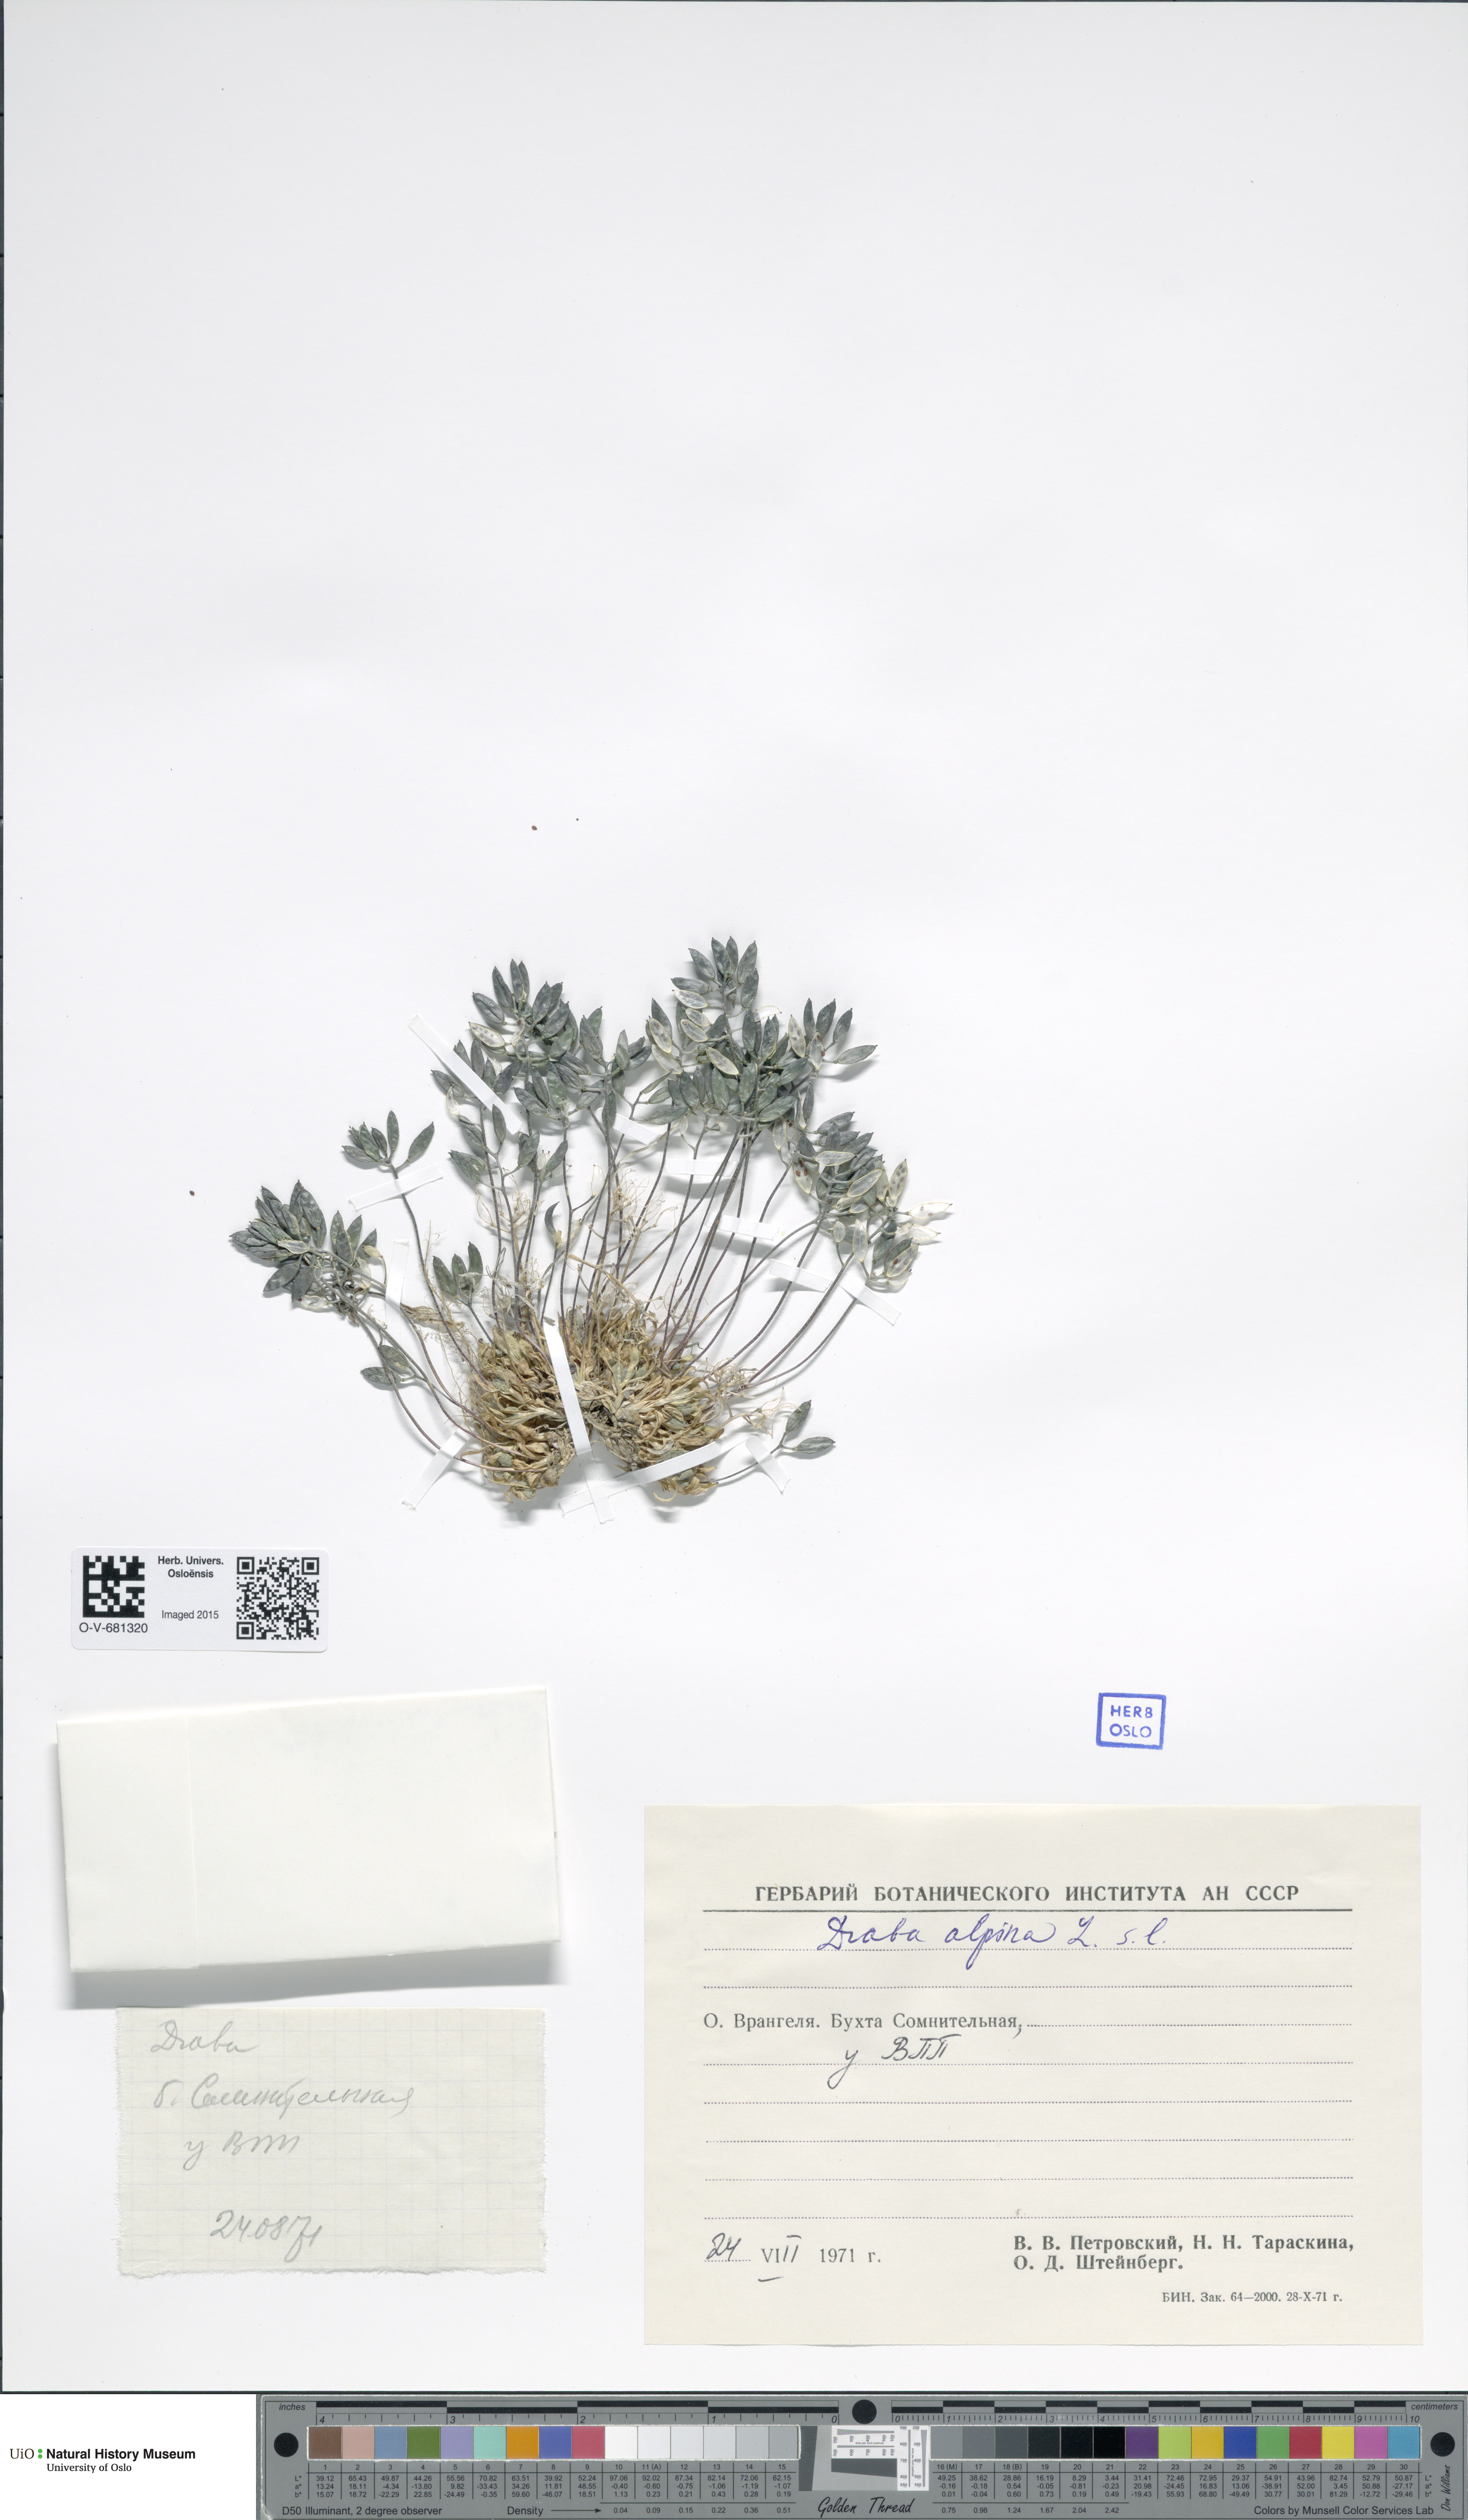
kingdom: Plantae
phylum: Tracheophyta
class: Magnoliopsida
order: Brassicales
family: Brassicaceae
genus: Draba
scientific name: Draba alpina
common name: Alpine draba
